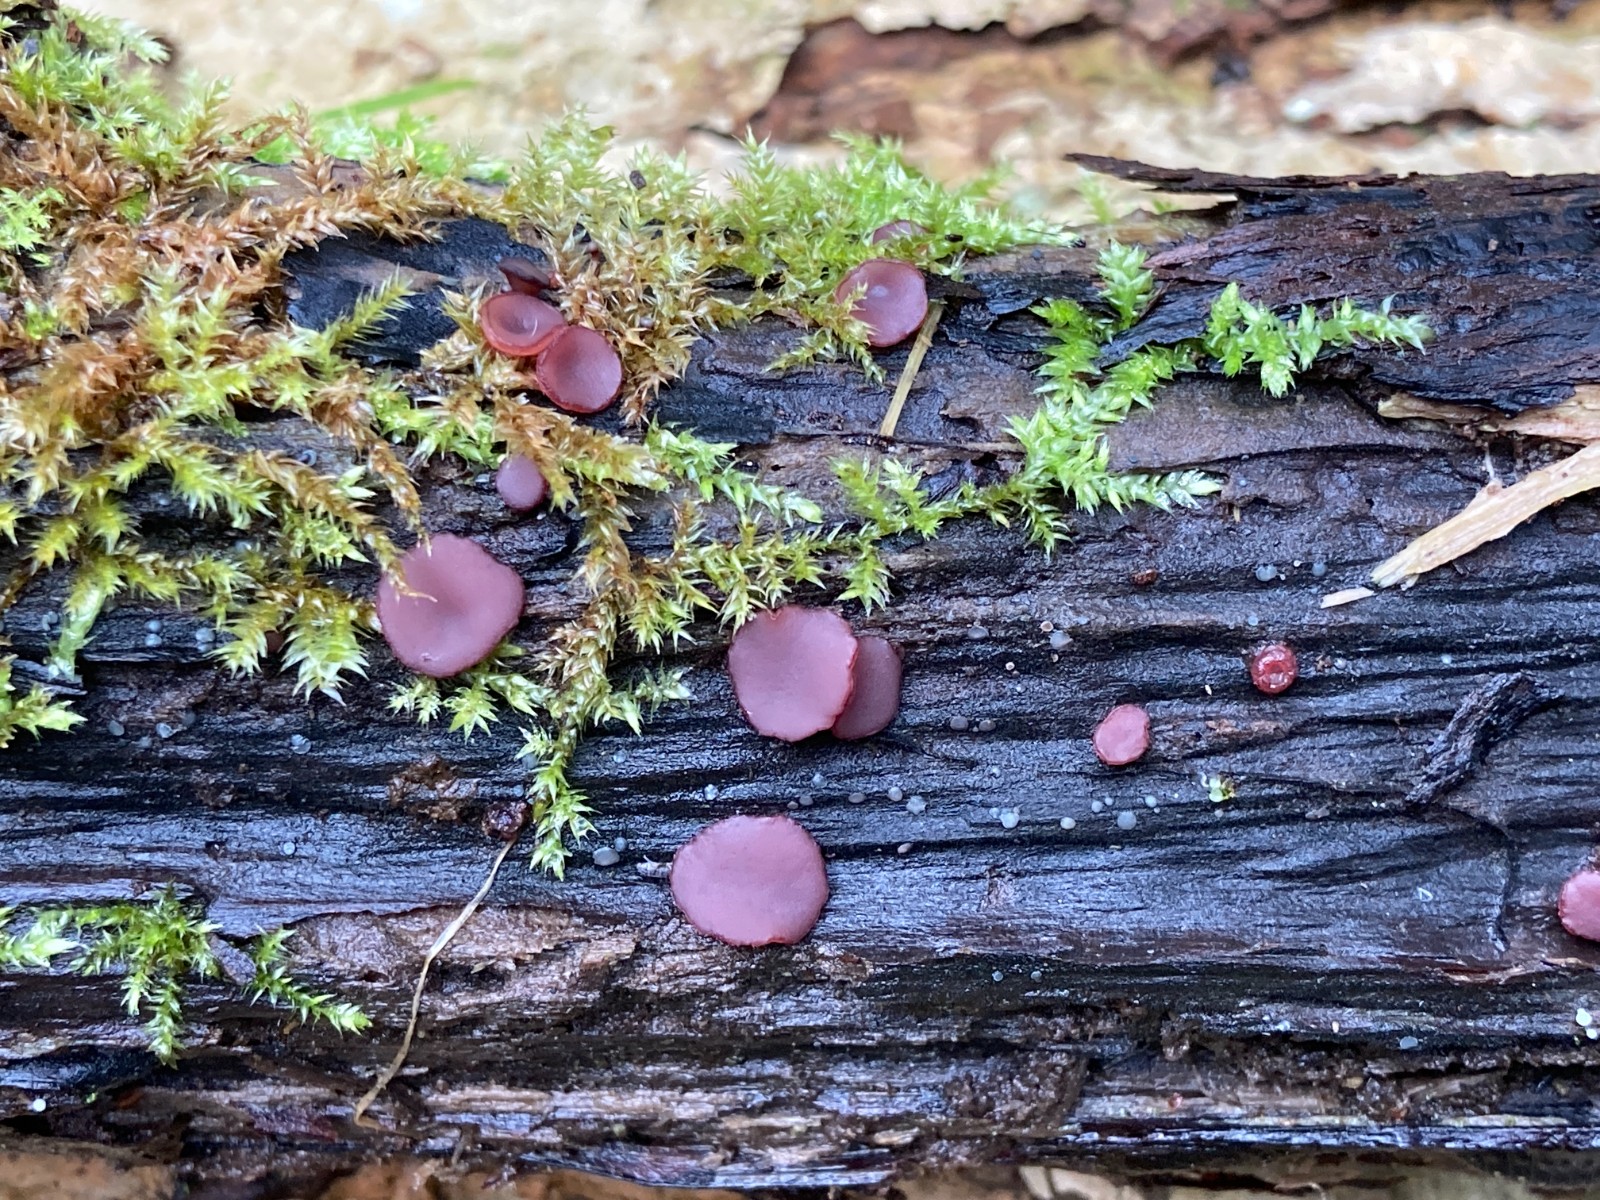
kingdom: Fungi
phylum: Ascomycota
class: Leotiomycetes
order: Helotiales
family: Gelatinodiscaceae
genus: Ascocoryne
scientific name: Ascocoryne cylichnium
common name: stor sejskive
